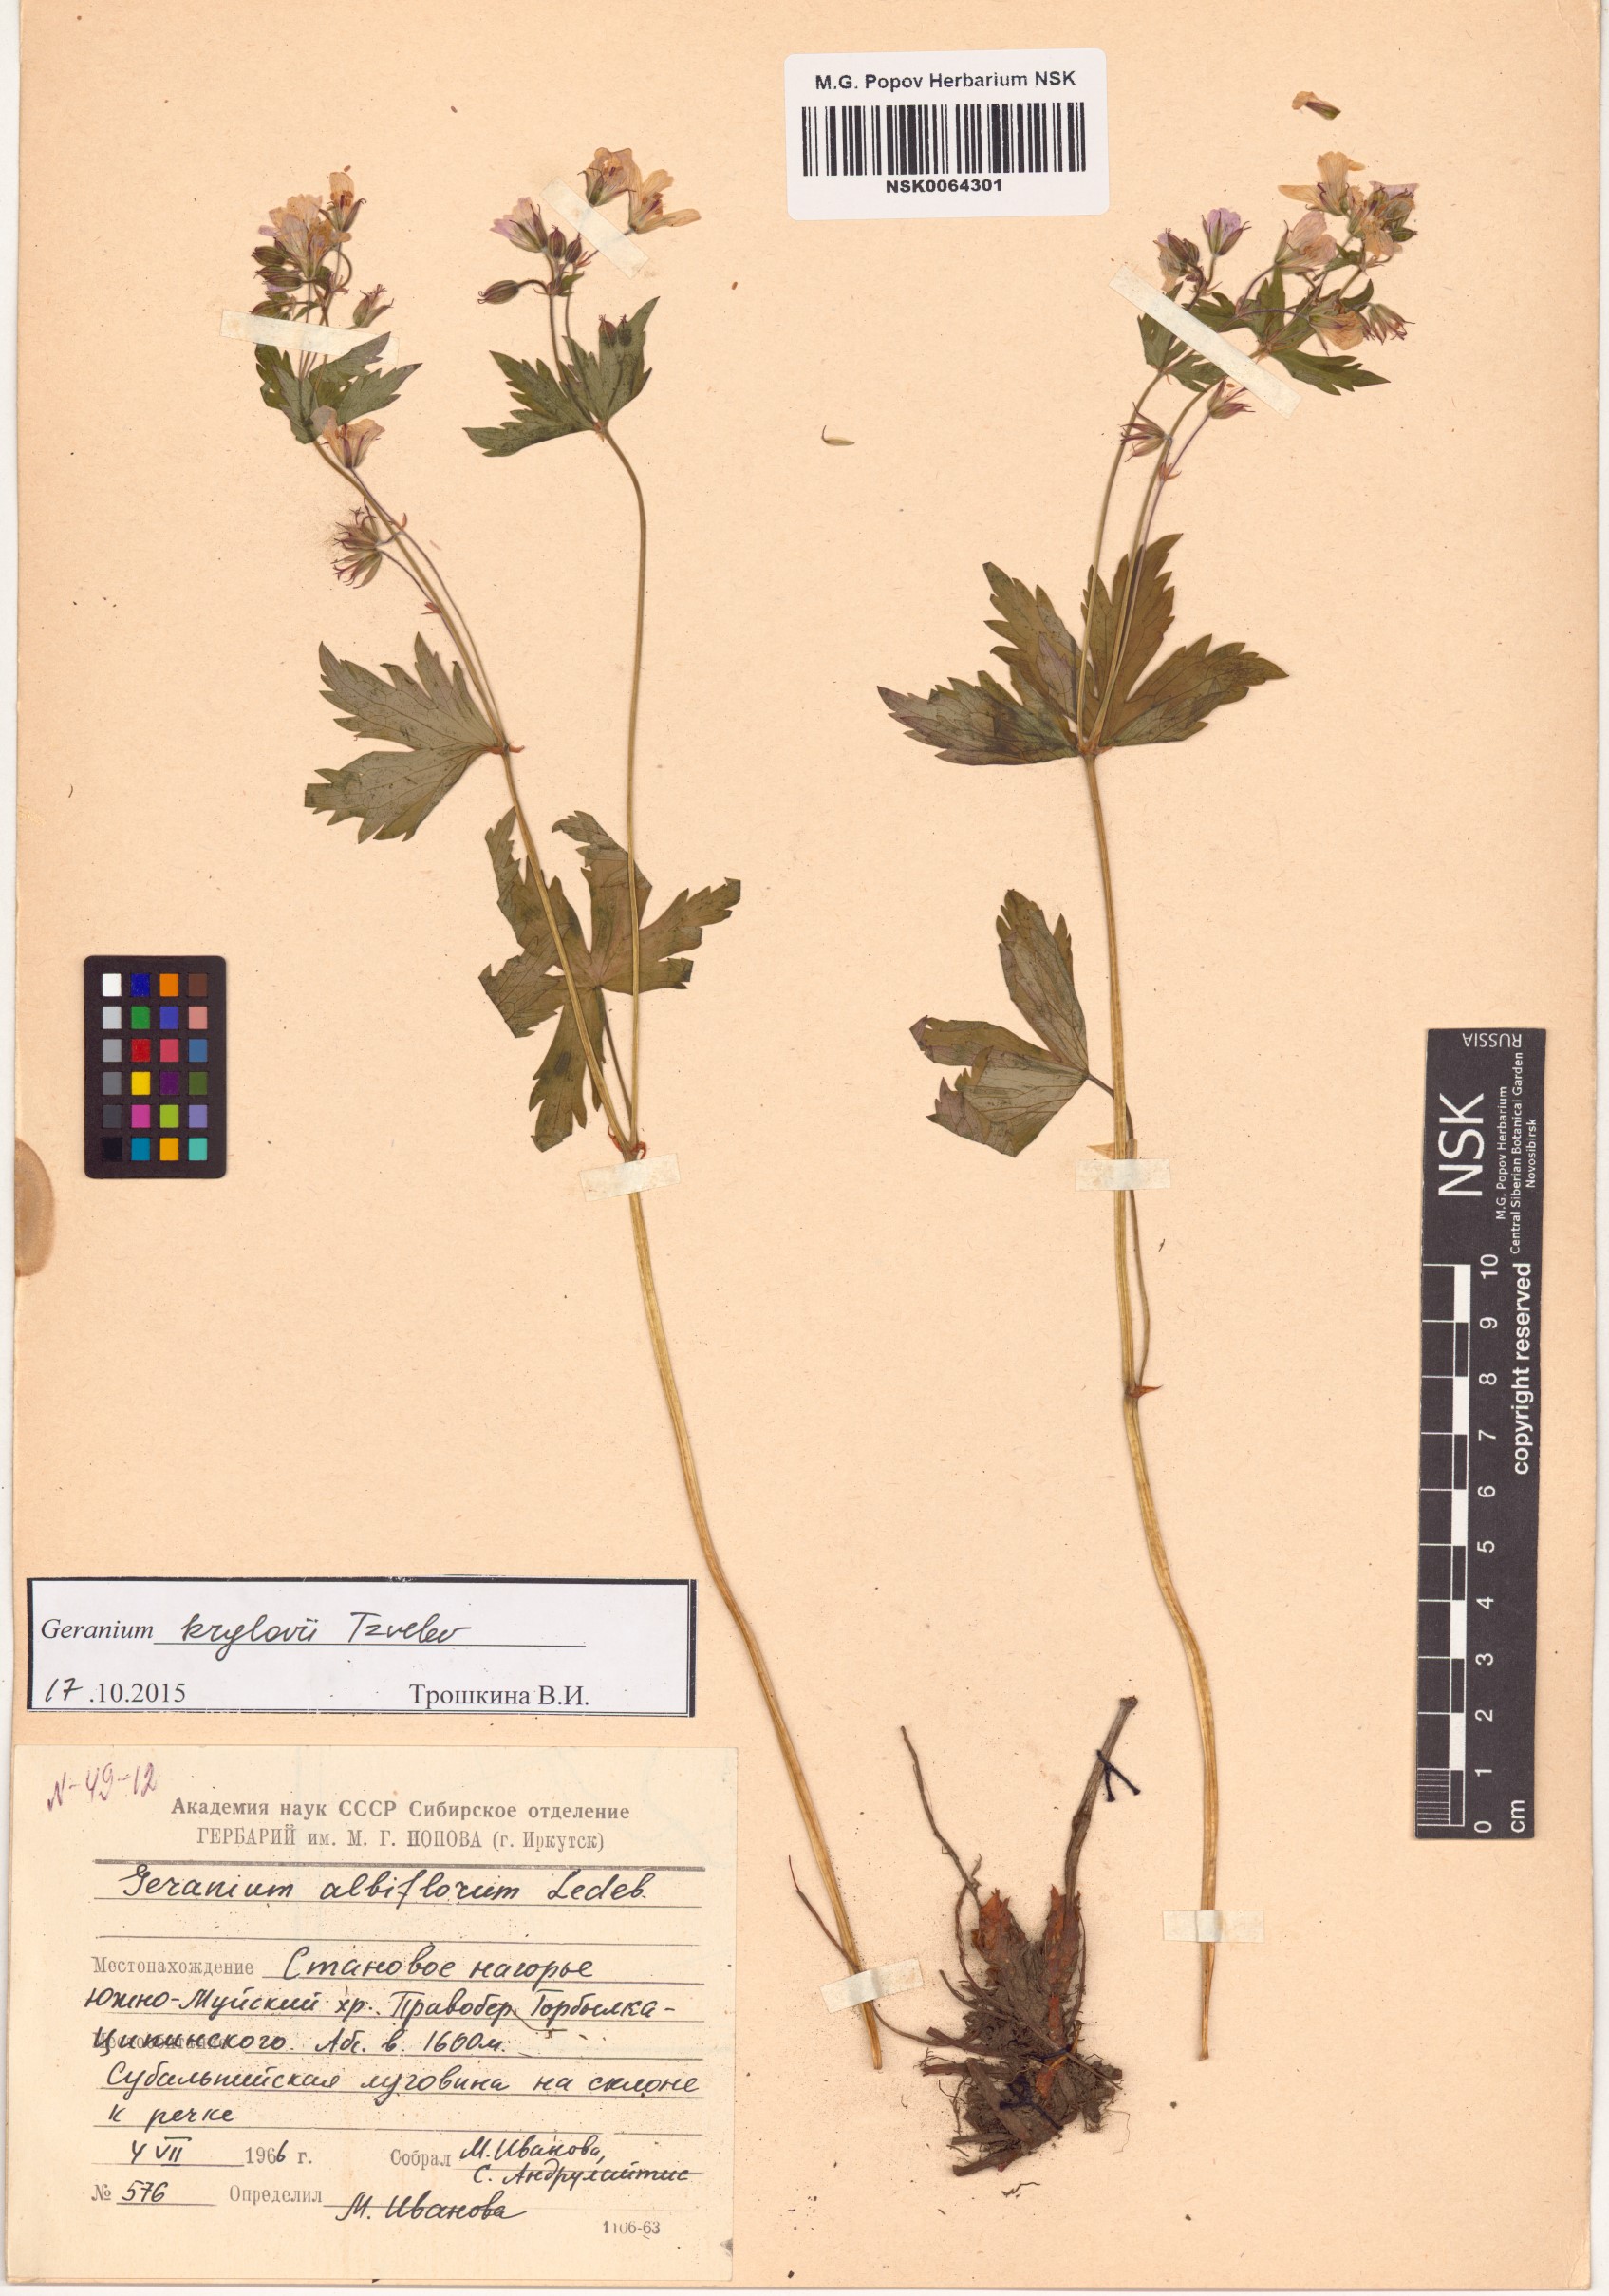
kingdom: Plantae
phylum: Tracheophyta
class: Magnoliopsida
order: Geraniales
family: Geraniaceae
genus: Geranium
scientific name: Geranium sylvaticum
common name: Wood crane's-bill
